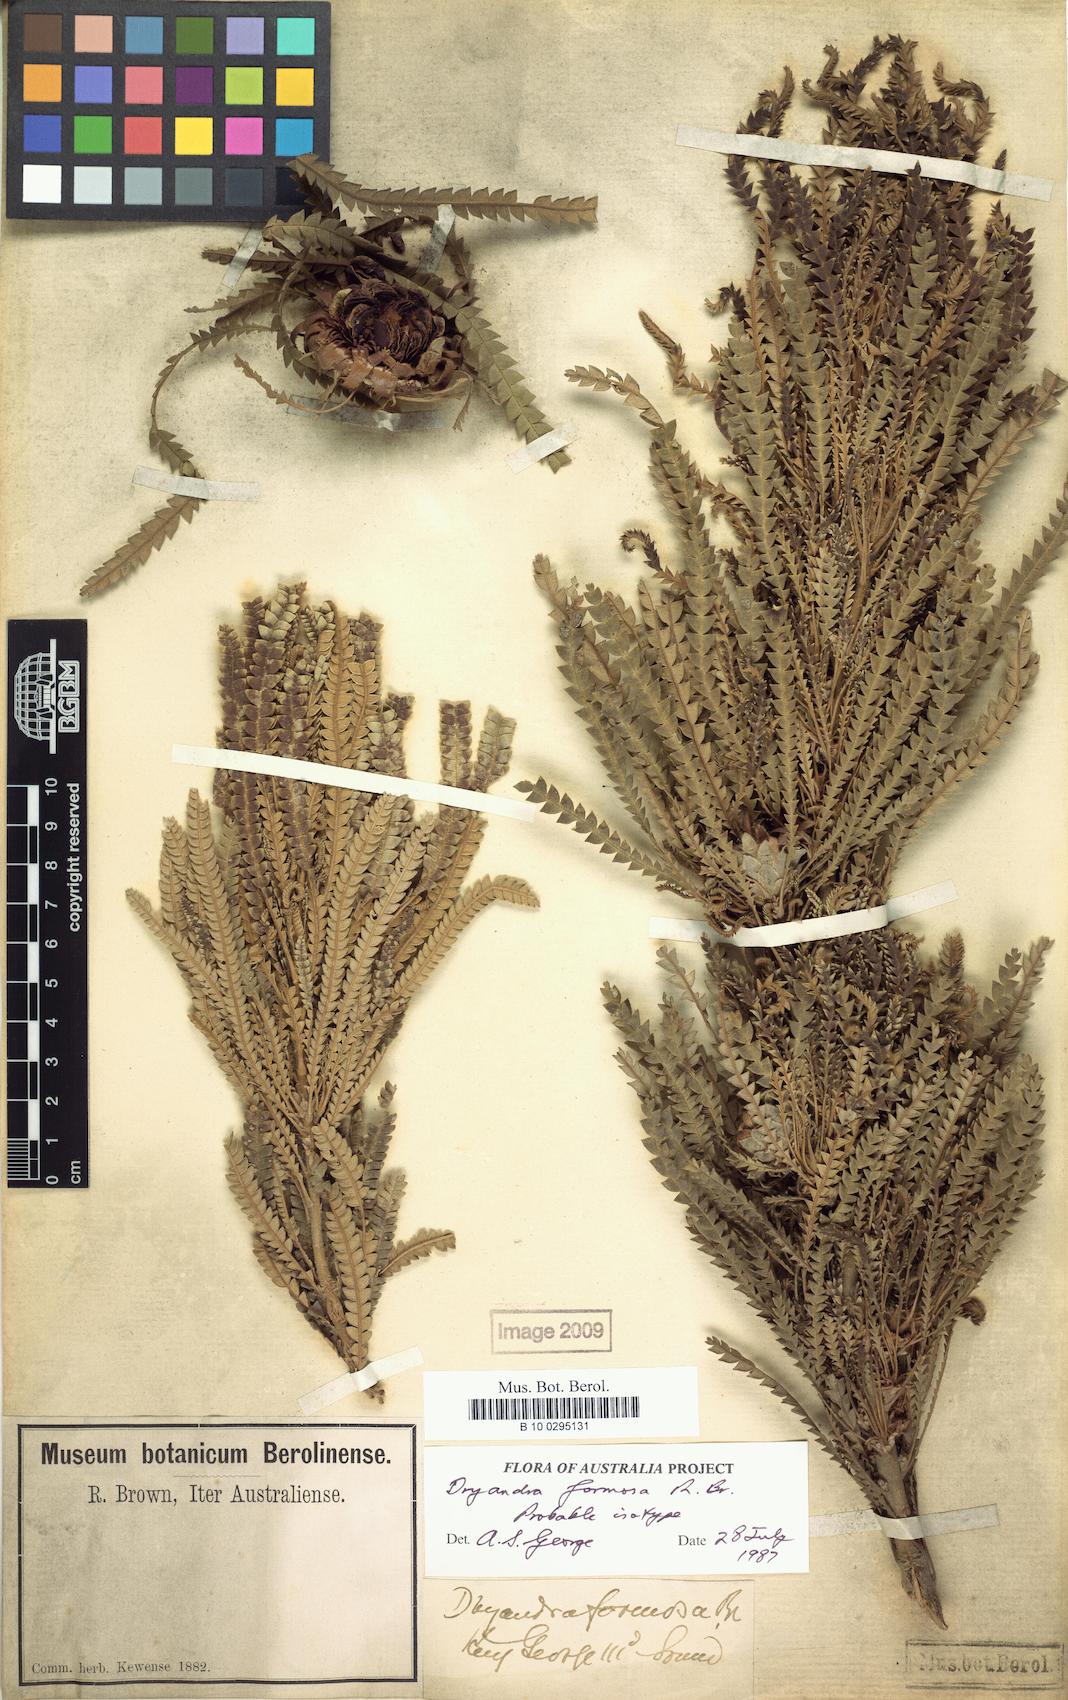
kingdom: Plantae
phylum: Tracheophyta
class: Magnoliopsida
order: Proteales
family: Proteaceae
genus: Banksia
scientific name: Banksia formosa
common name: Showy dryandra
